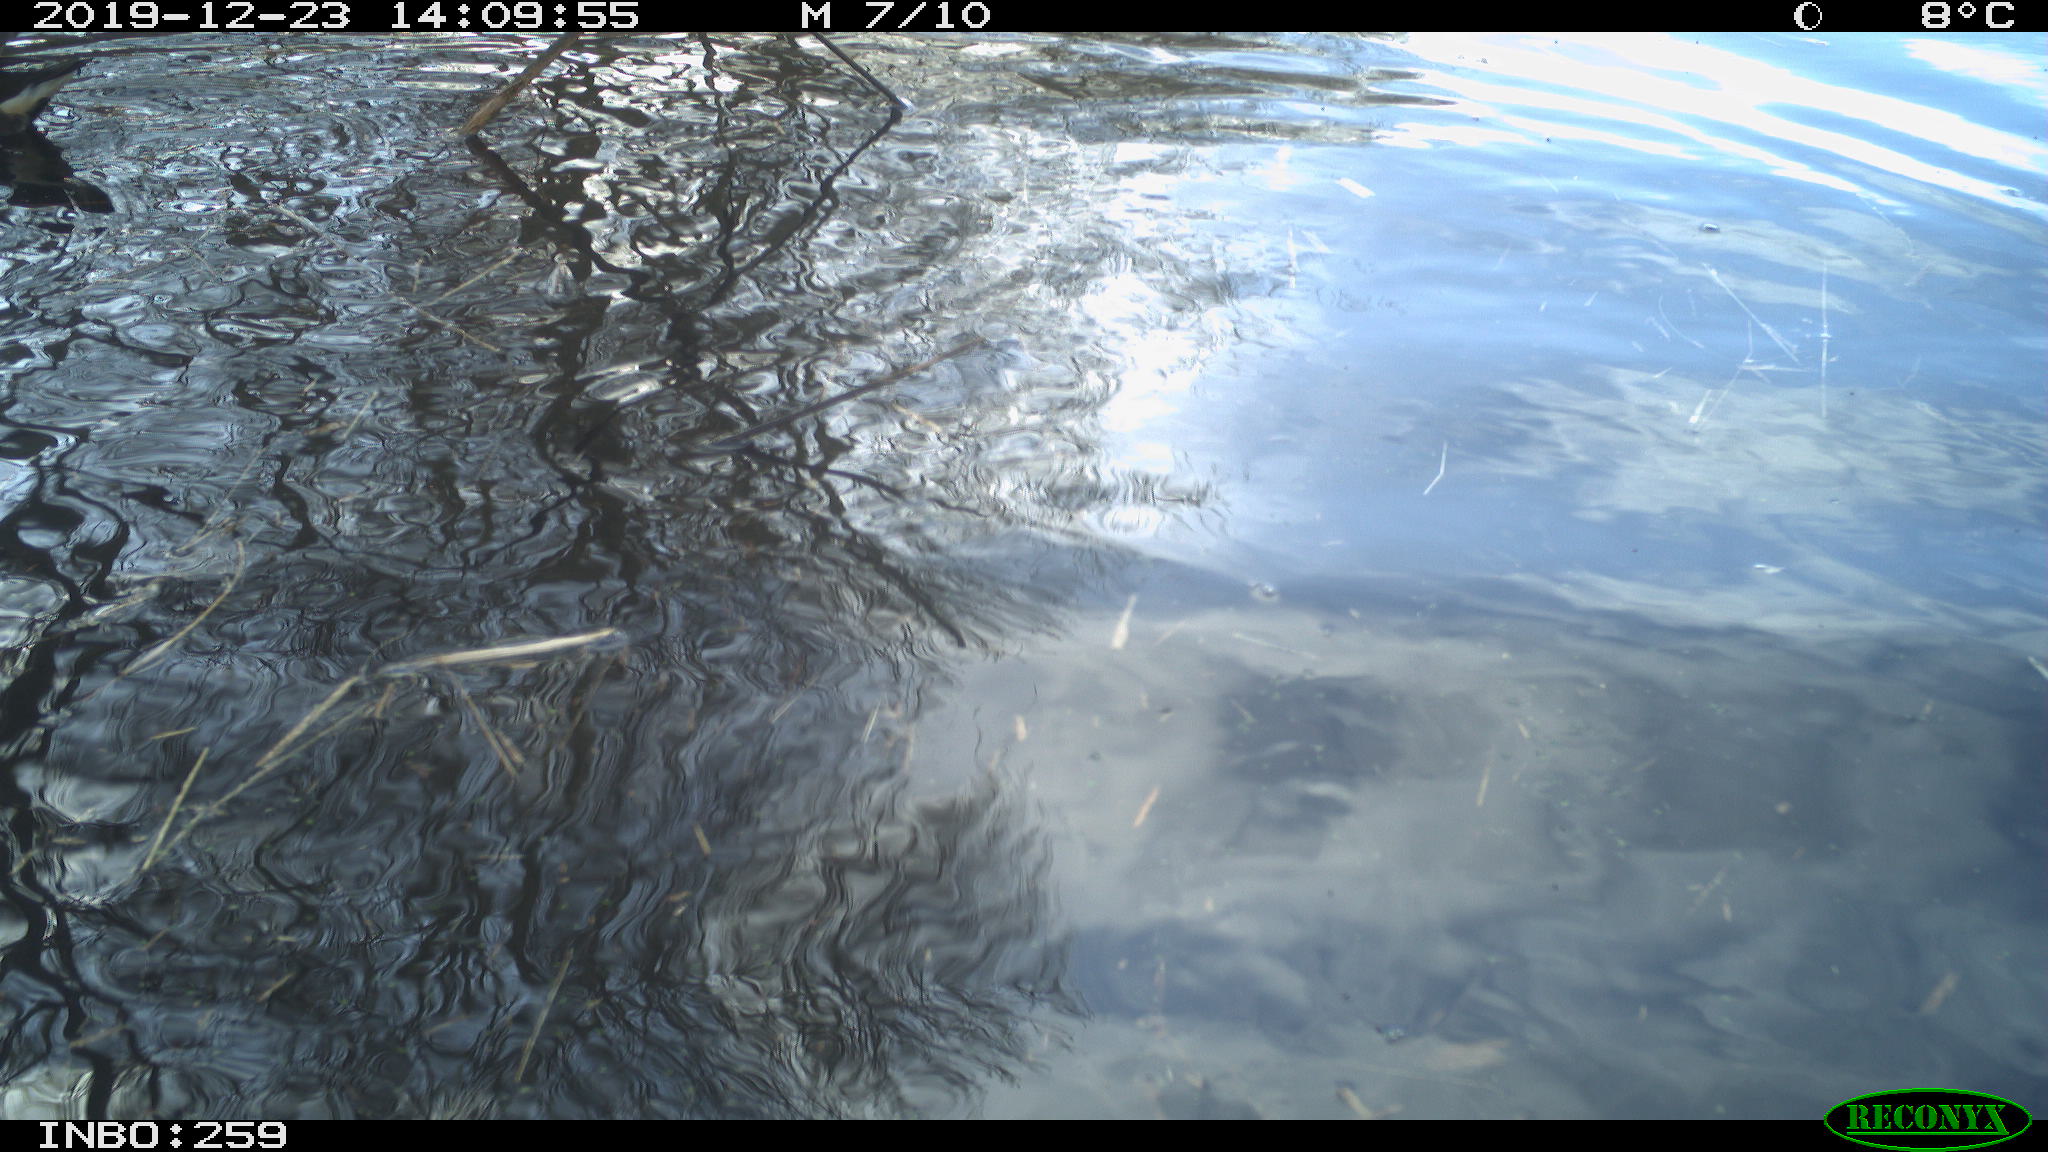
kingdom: Animalia
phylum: Chordata
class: Aves
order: Gruiformes
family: Rallidae
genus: Gallinula
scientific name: Gallinula chloropus
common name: Common moorhen
